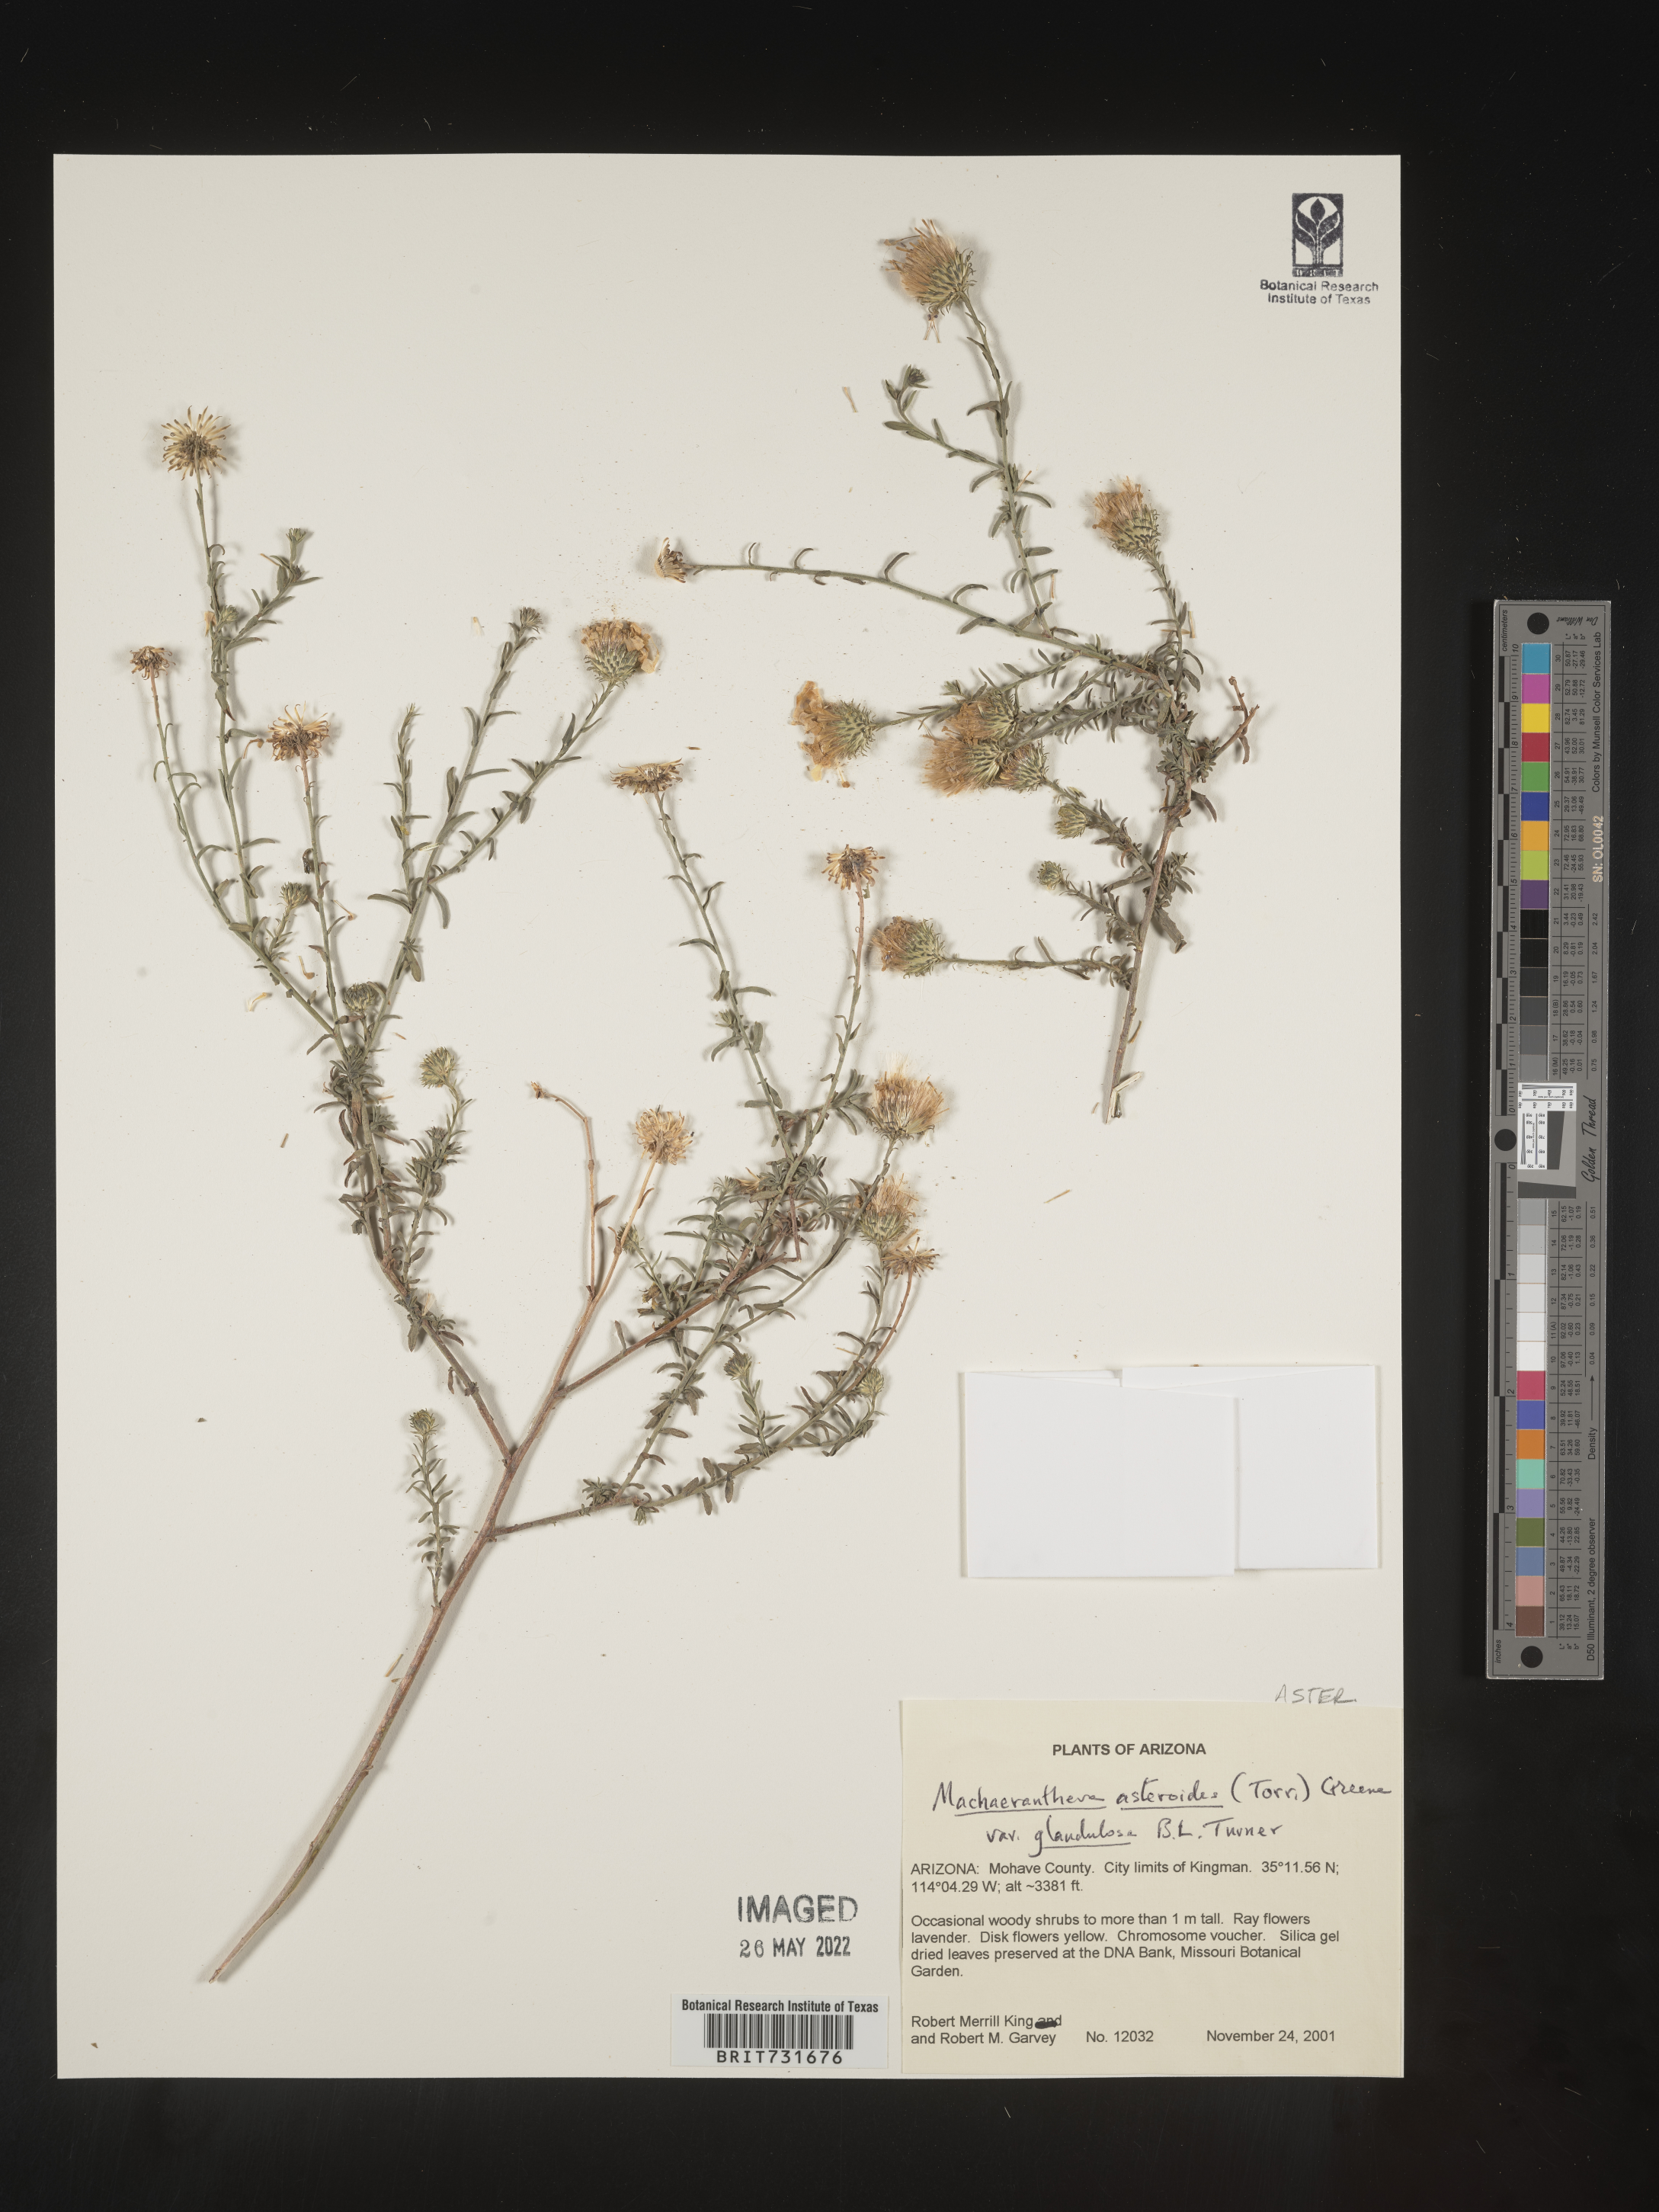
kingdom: Plantae
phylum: Tracheophyta
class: Magnoliopsida
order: Asterales
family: Asteraceae
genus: Dieteria
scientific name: Dieteria asteroides
